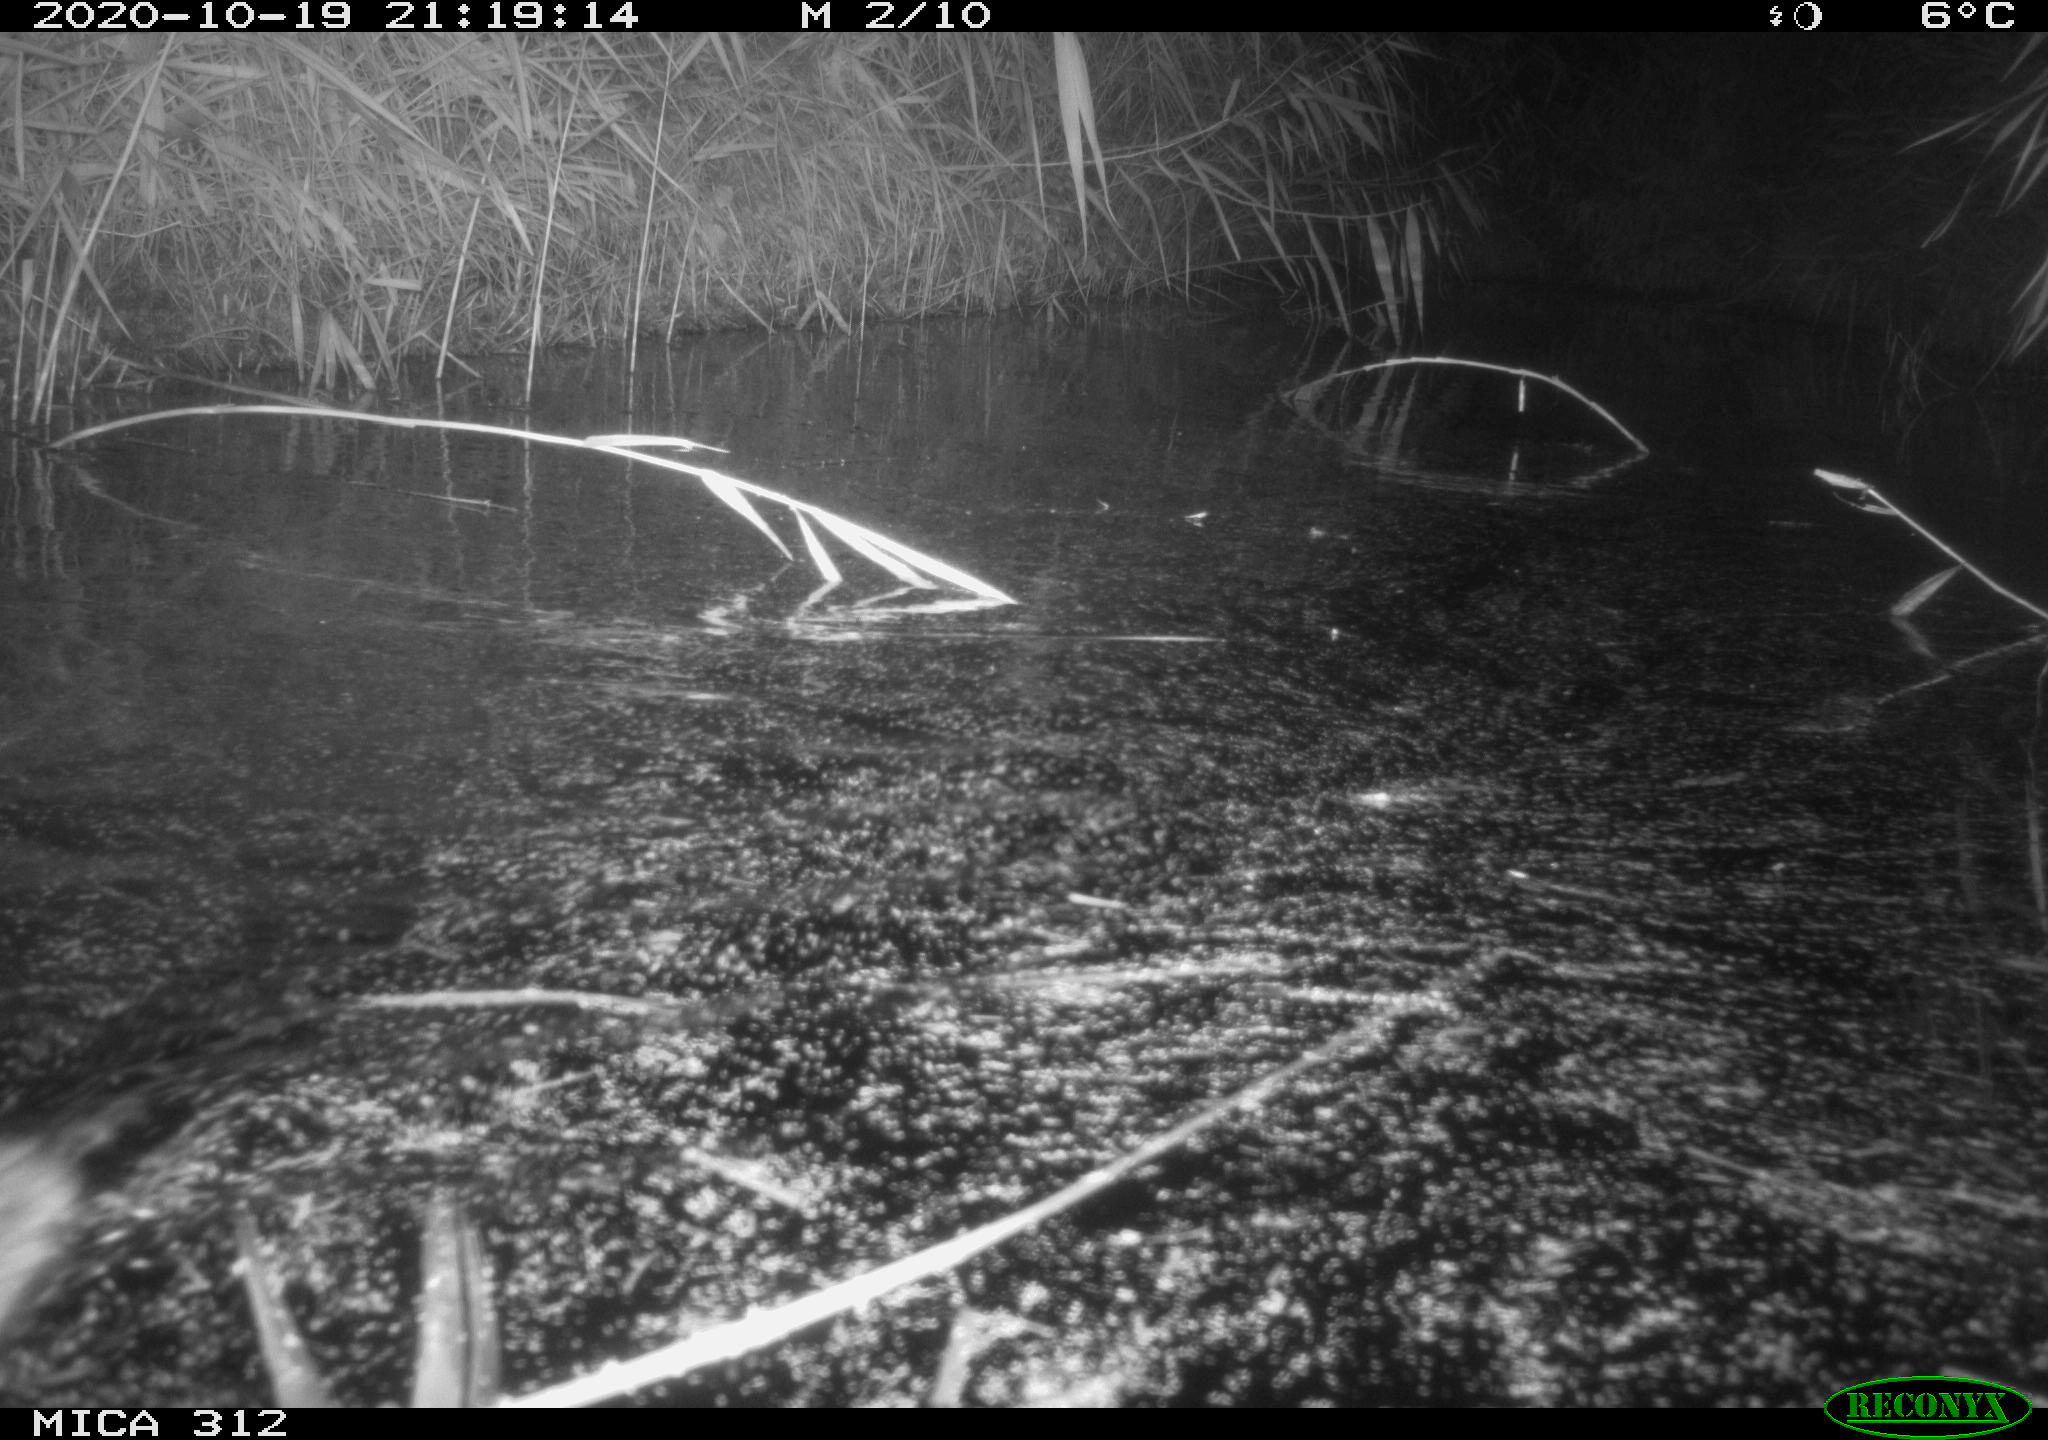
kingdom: Animalia
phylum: Chordata
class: Mammalia
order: Rodentia
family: Muridae
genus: Rattus
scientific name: Rattus norvegicus
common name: Brown rat
